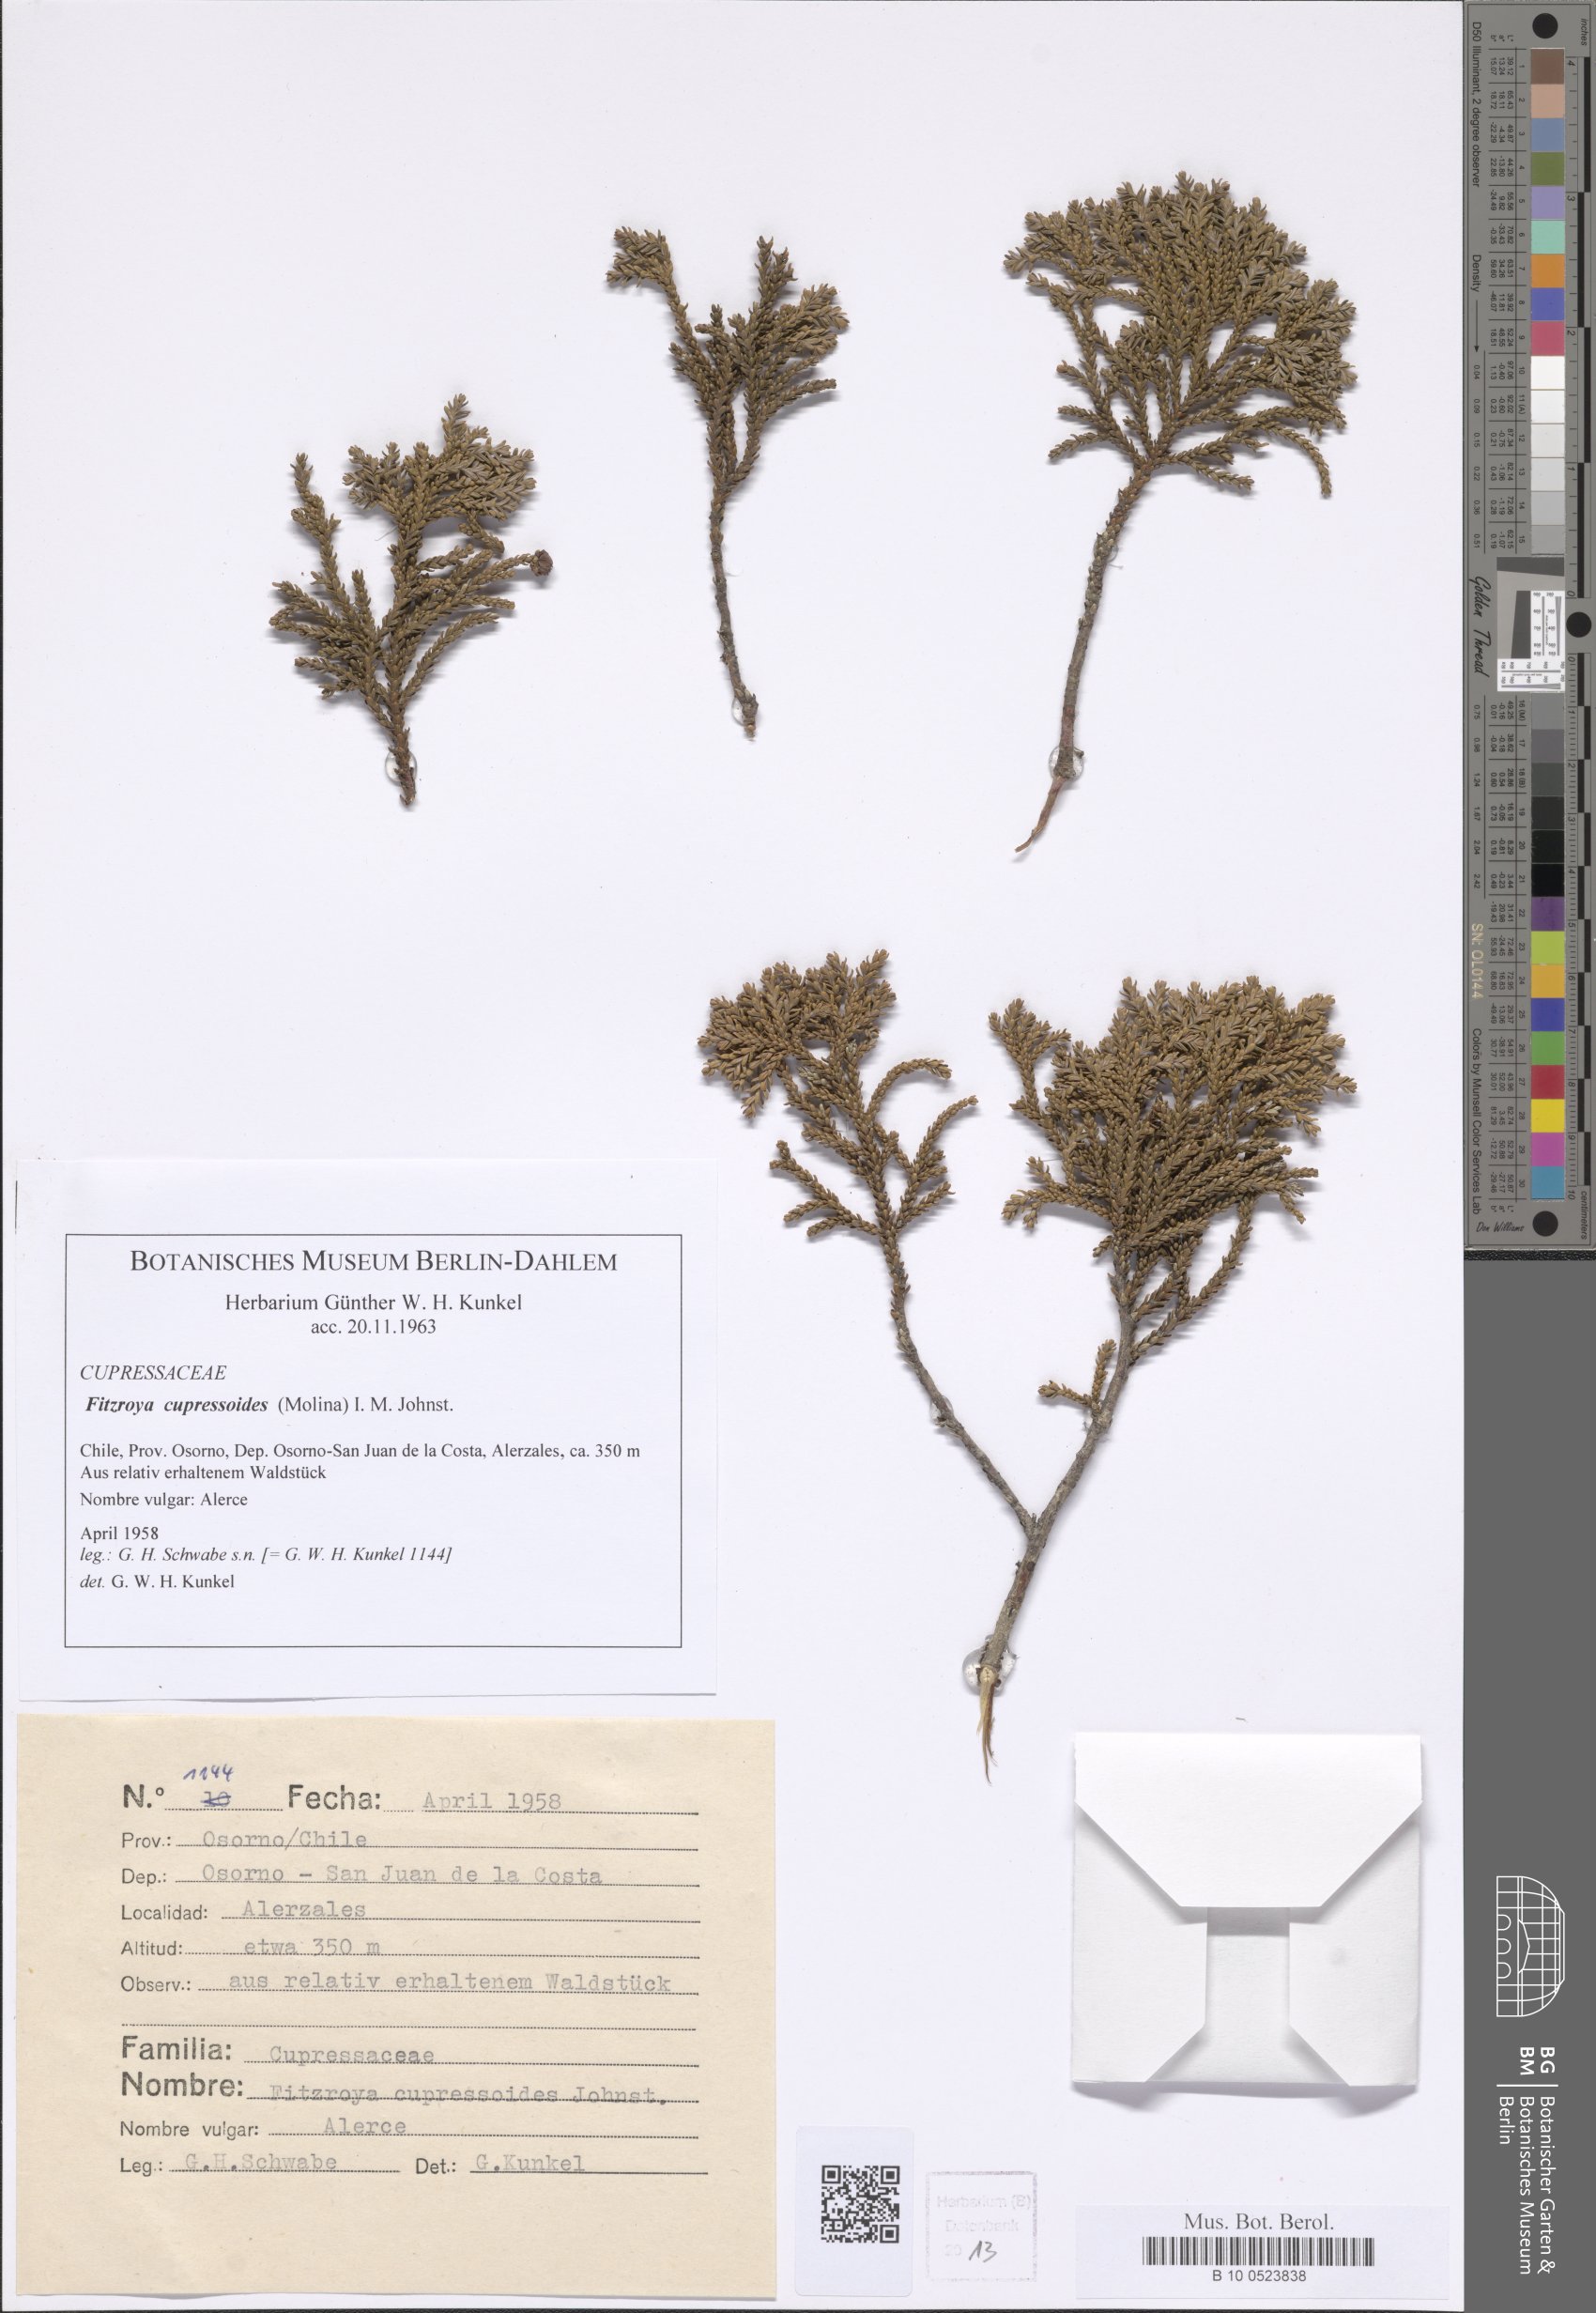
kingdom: Plantae
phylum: Tracheophyta
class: Pinopsida
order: Pinales
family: Cupressaceae
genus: Fitzroya
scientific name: Fitzroya cupressoides
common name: Patagonian cypress
